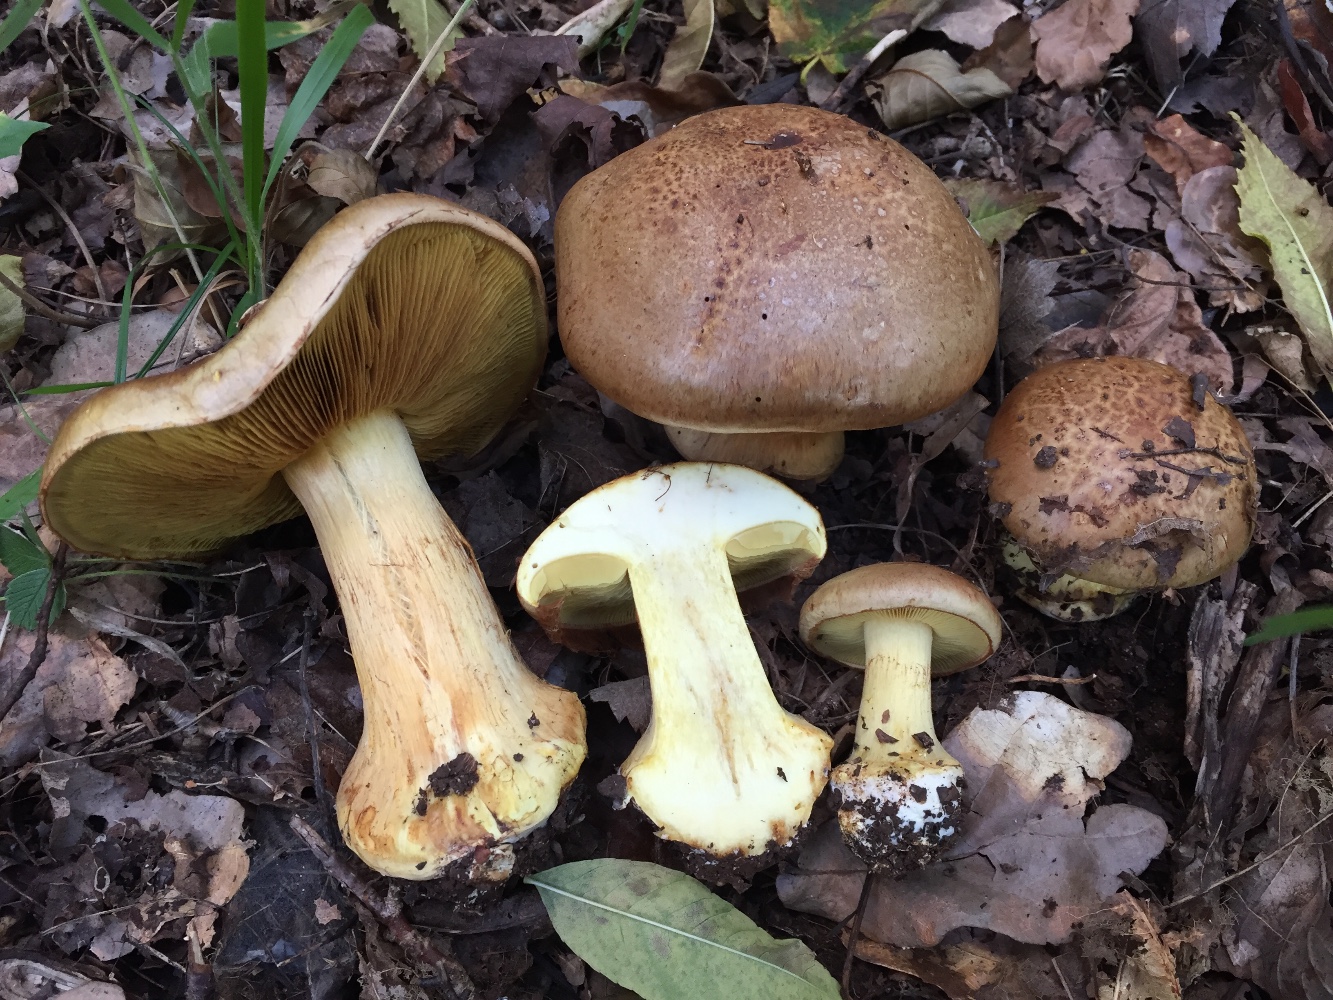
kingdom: Fungi
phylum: Basidiomycota
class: Agaricomycetes
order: Agaricales
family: Cortinariaceae
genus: Calonarius
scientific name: Calonarius quercilicis
